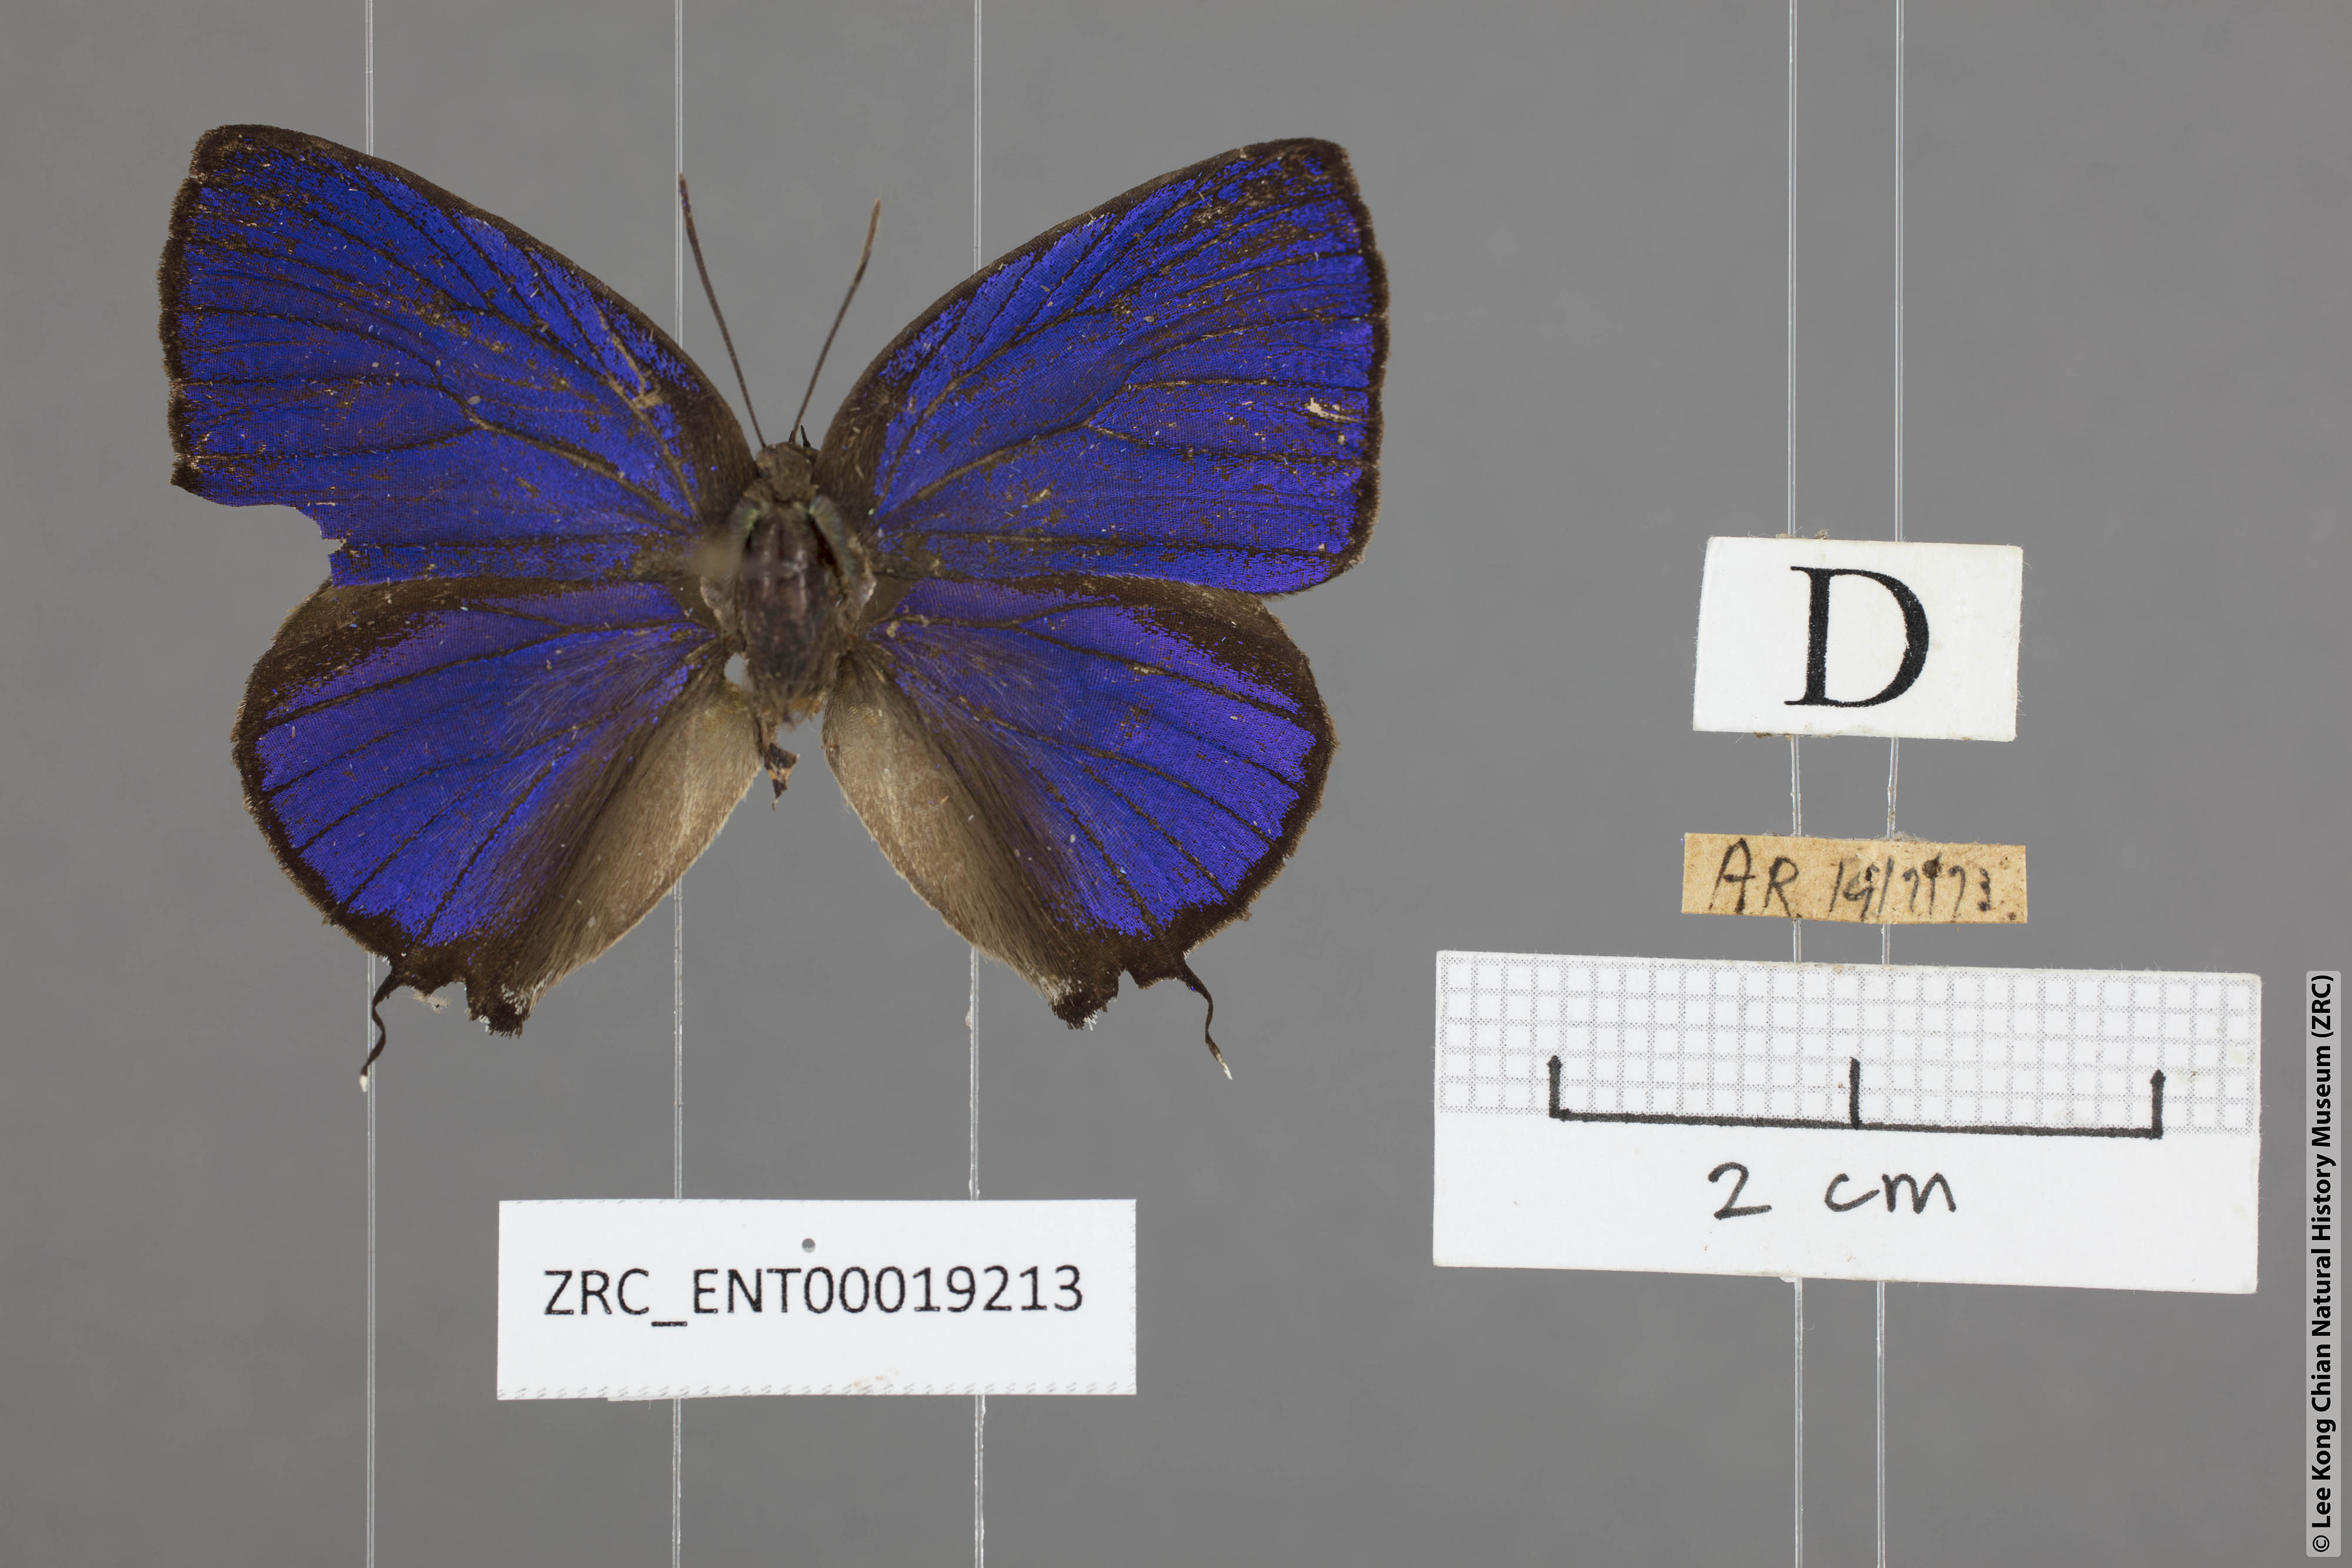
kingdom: Animalia
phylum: Arthropoda
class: Insecta
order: Lepidoptera
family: Lycaenidae
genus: Arhopala
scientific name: Arhopala athada
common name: Vinous oakblue
